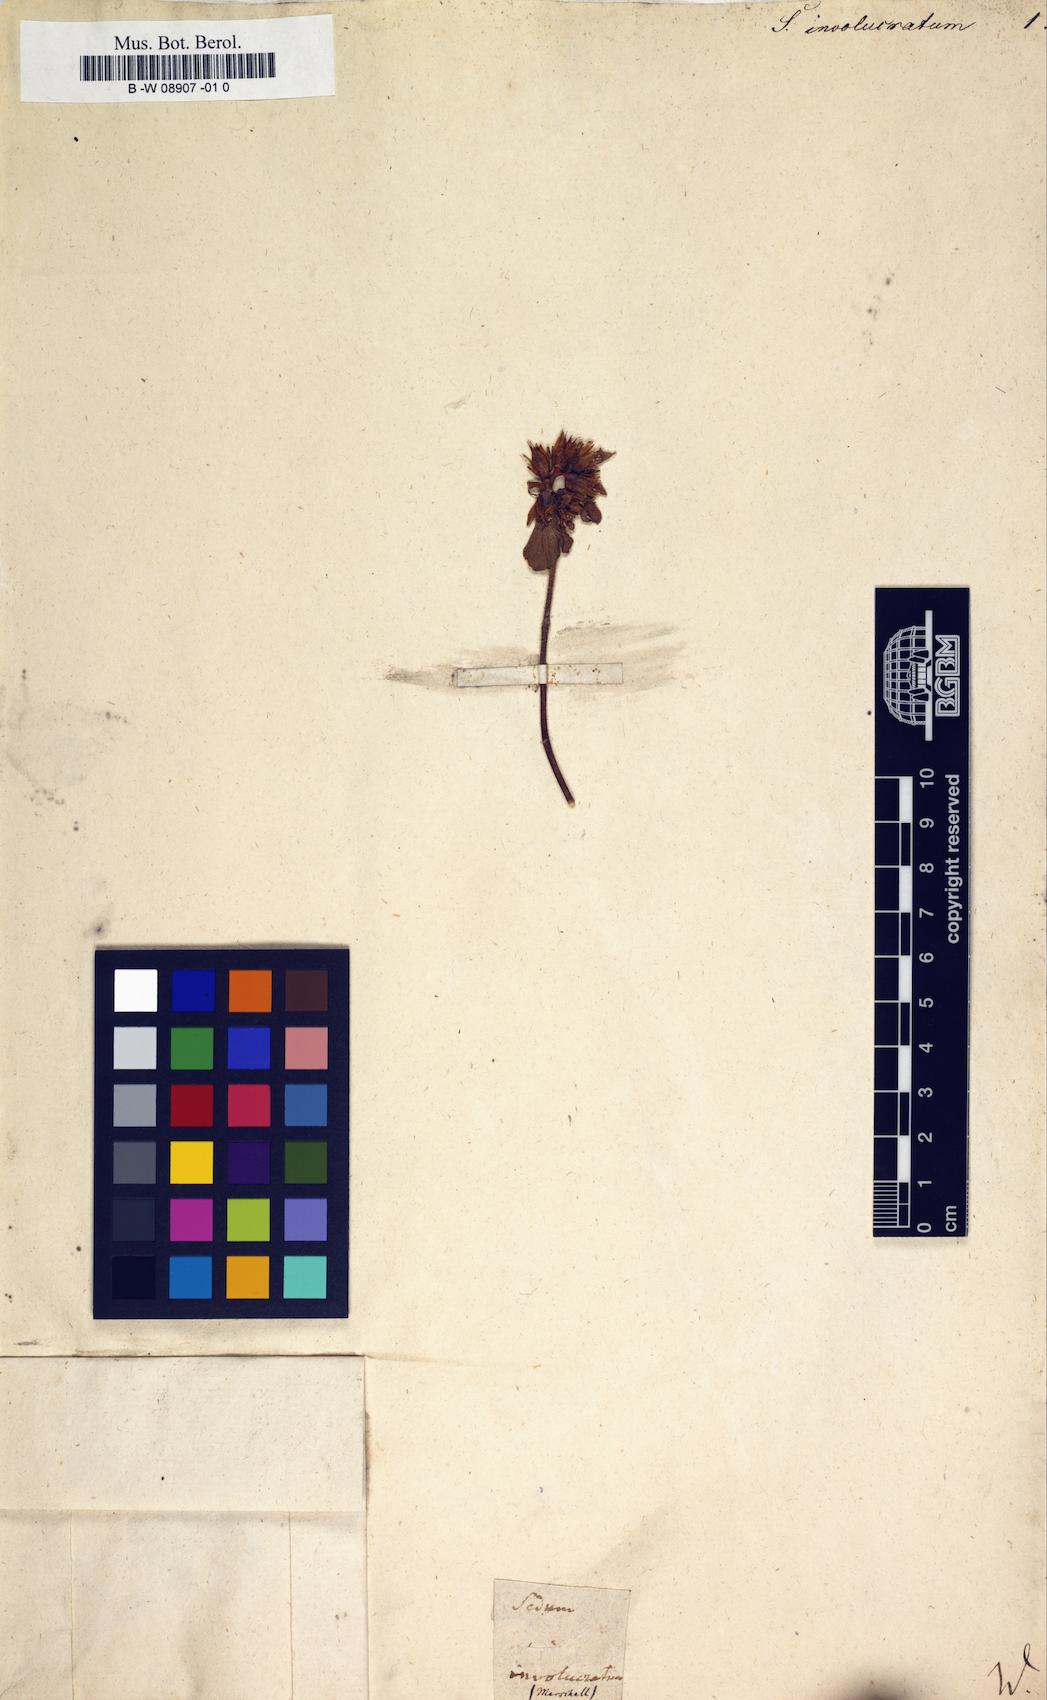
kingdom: Plantae
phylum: Tracheophyta
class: Magnoliopsida
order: Saxifragales
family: Crassulaceae
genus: Phedimus
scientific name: Phedimus spurius
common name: Caucasian stonecrop
